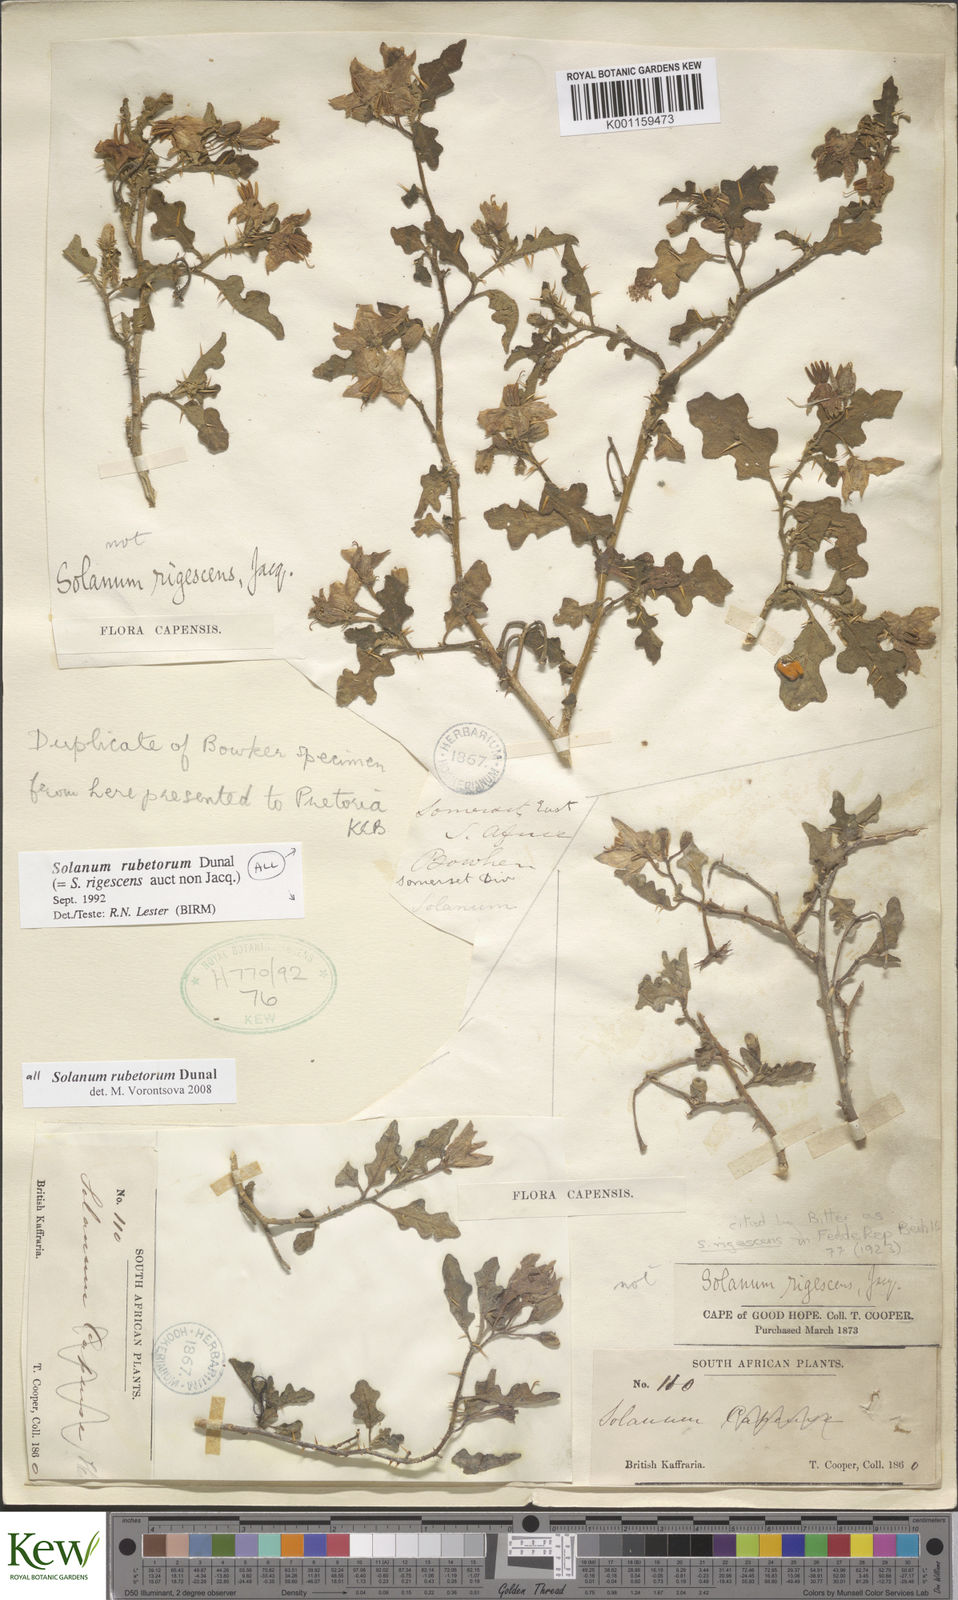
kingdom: Plantae
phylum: Tracheophyta
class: Magnoliopsida
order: Solanales
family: Solanaceae
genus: Solanum
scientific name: Solanum rubetorum
